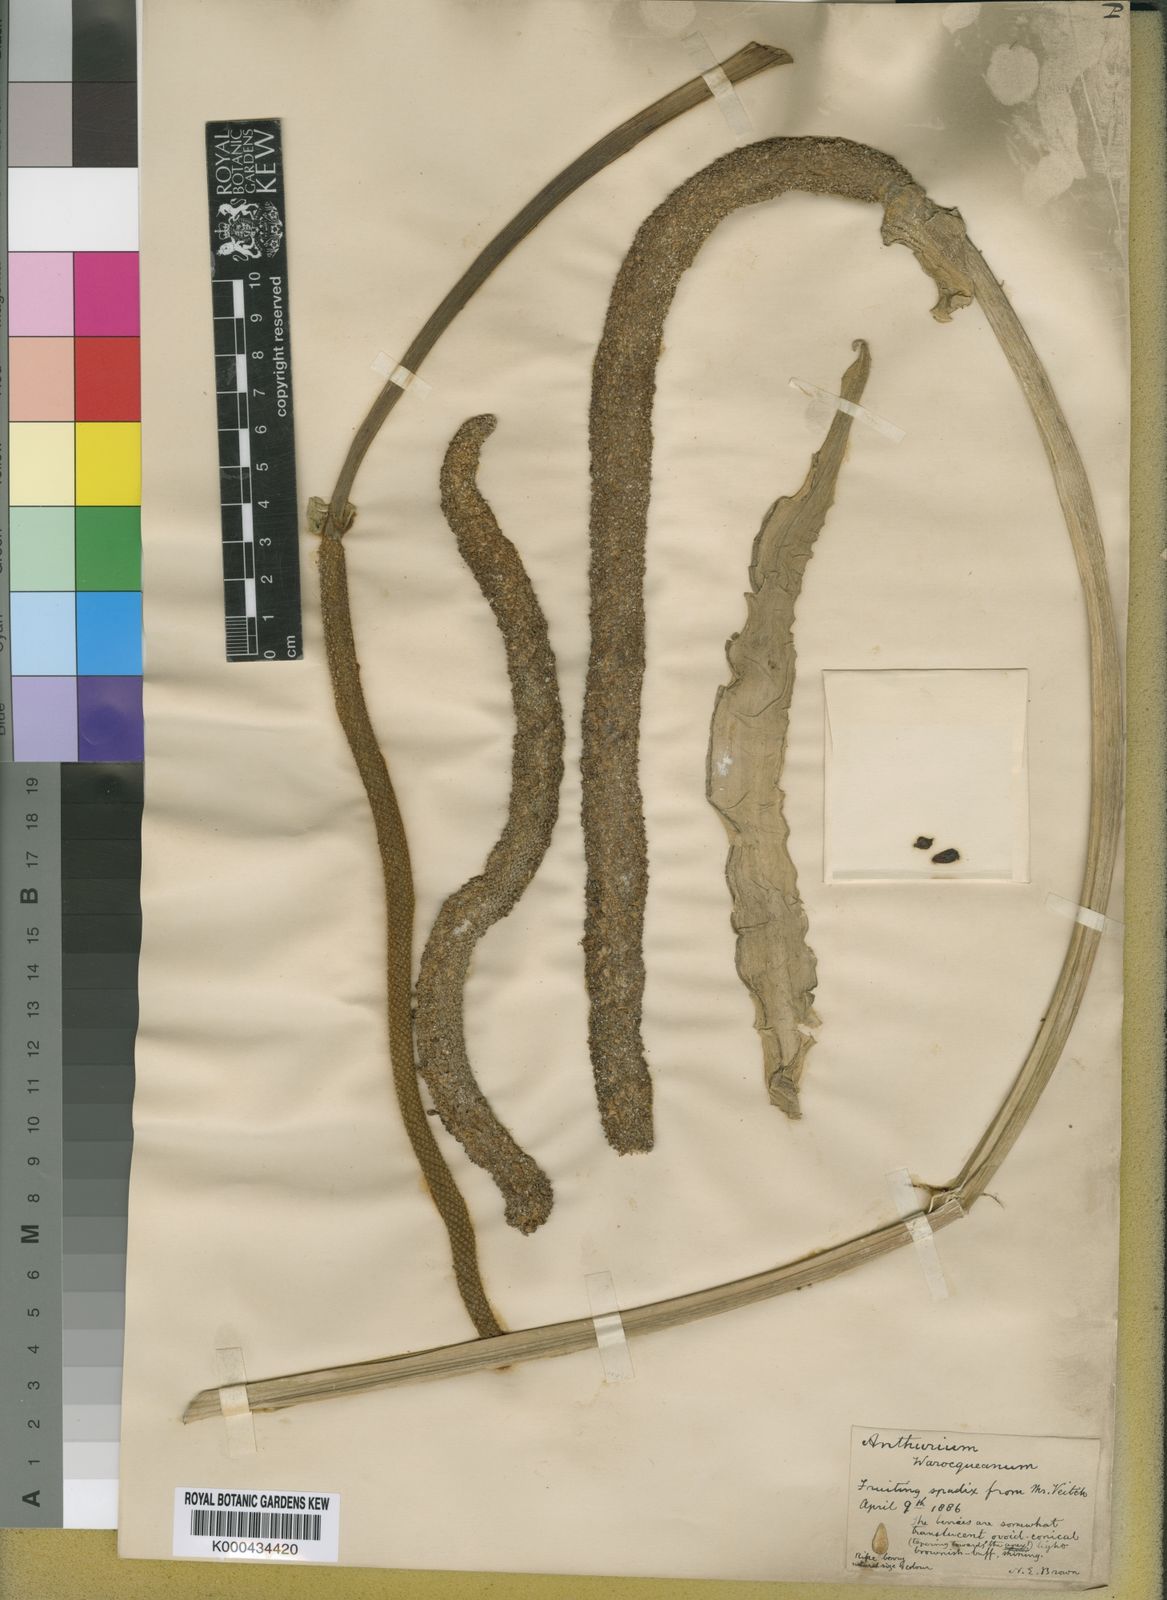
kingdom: Plantae
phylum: Tracheophyta
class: Liliopsida
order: Alismatales
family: Araceae
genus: Anthurium
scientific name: Anthurium warocqueanum
